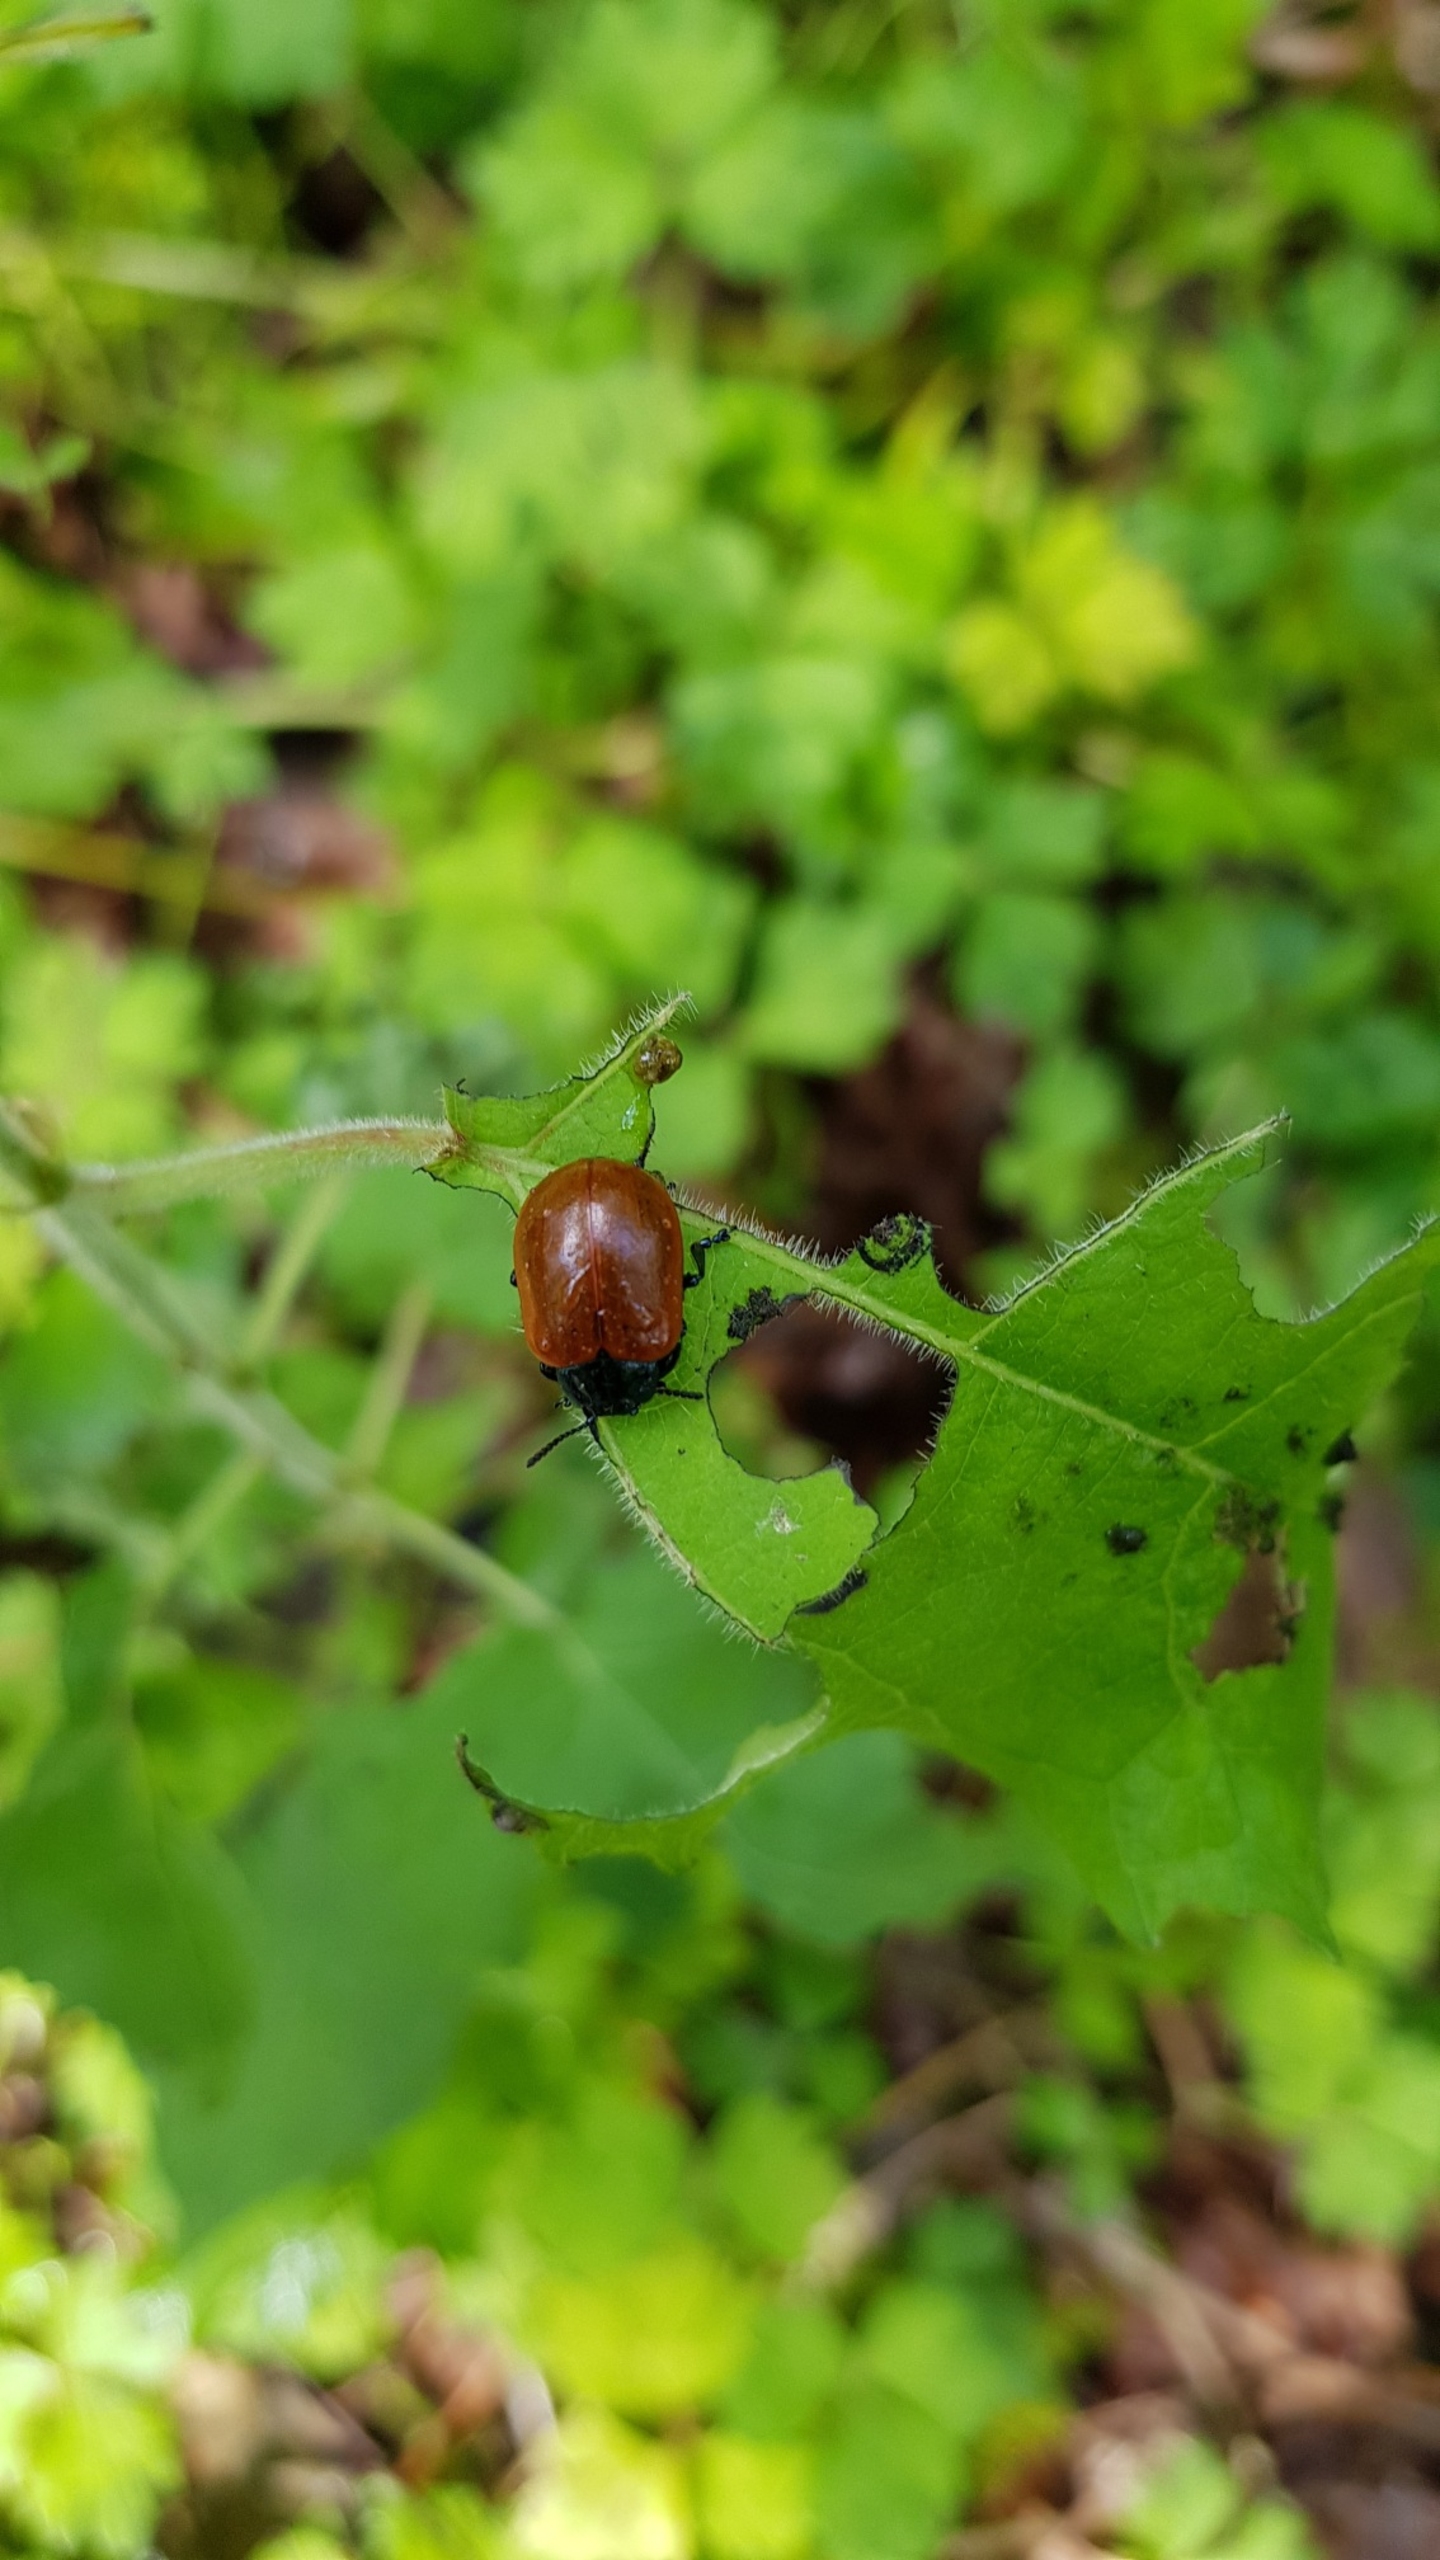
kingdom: Animalia
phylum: Arthropoda
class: Insecta
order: Coleoptera
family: Chrysomelidae
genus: Chrysomela
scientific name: Chrysomela populi
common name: Poppelbladbille
